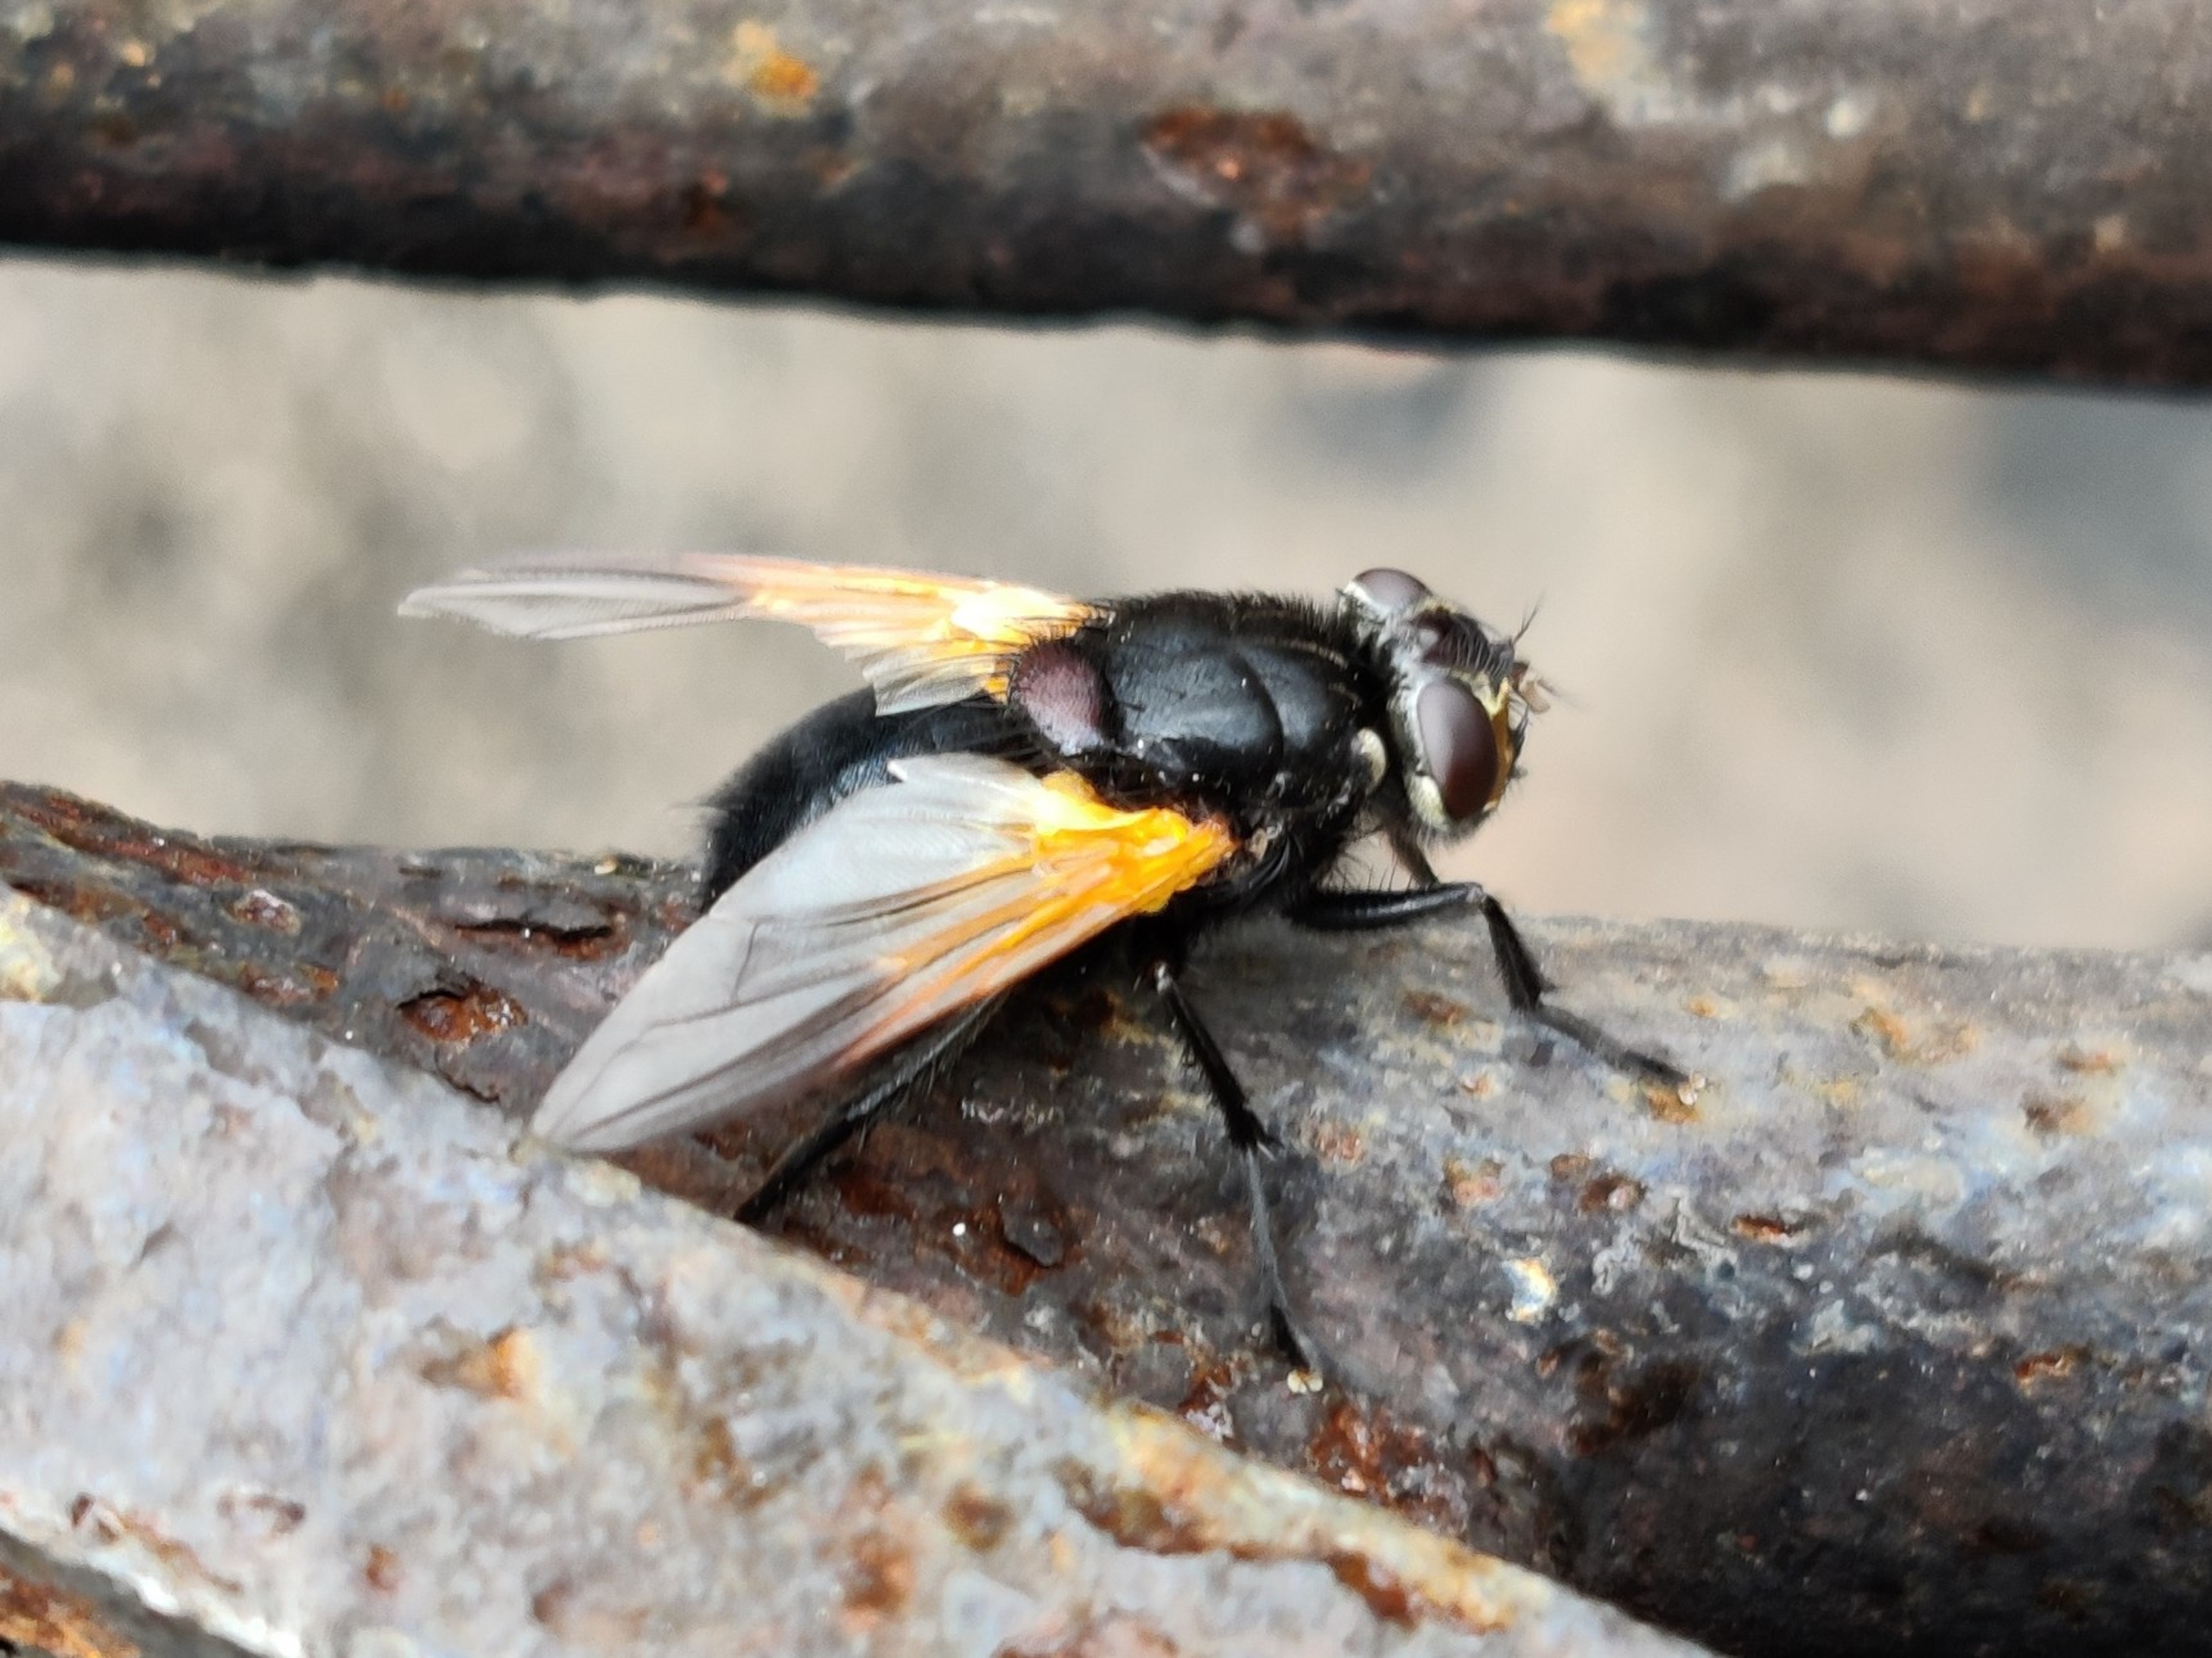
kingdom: Animalia
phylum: Arthropoda
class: Insecta
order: Diptera
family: Muscidae
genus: Mesembrina
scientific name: Mesembrina meridiana
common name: Gulvinget flue
